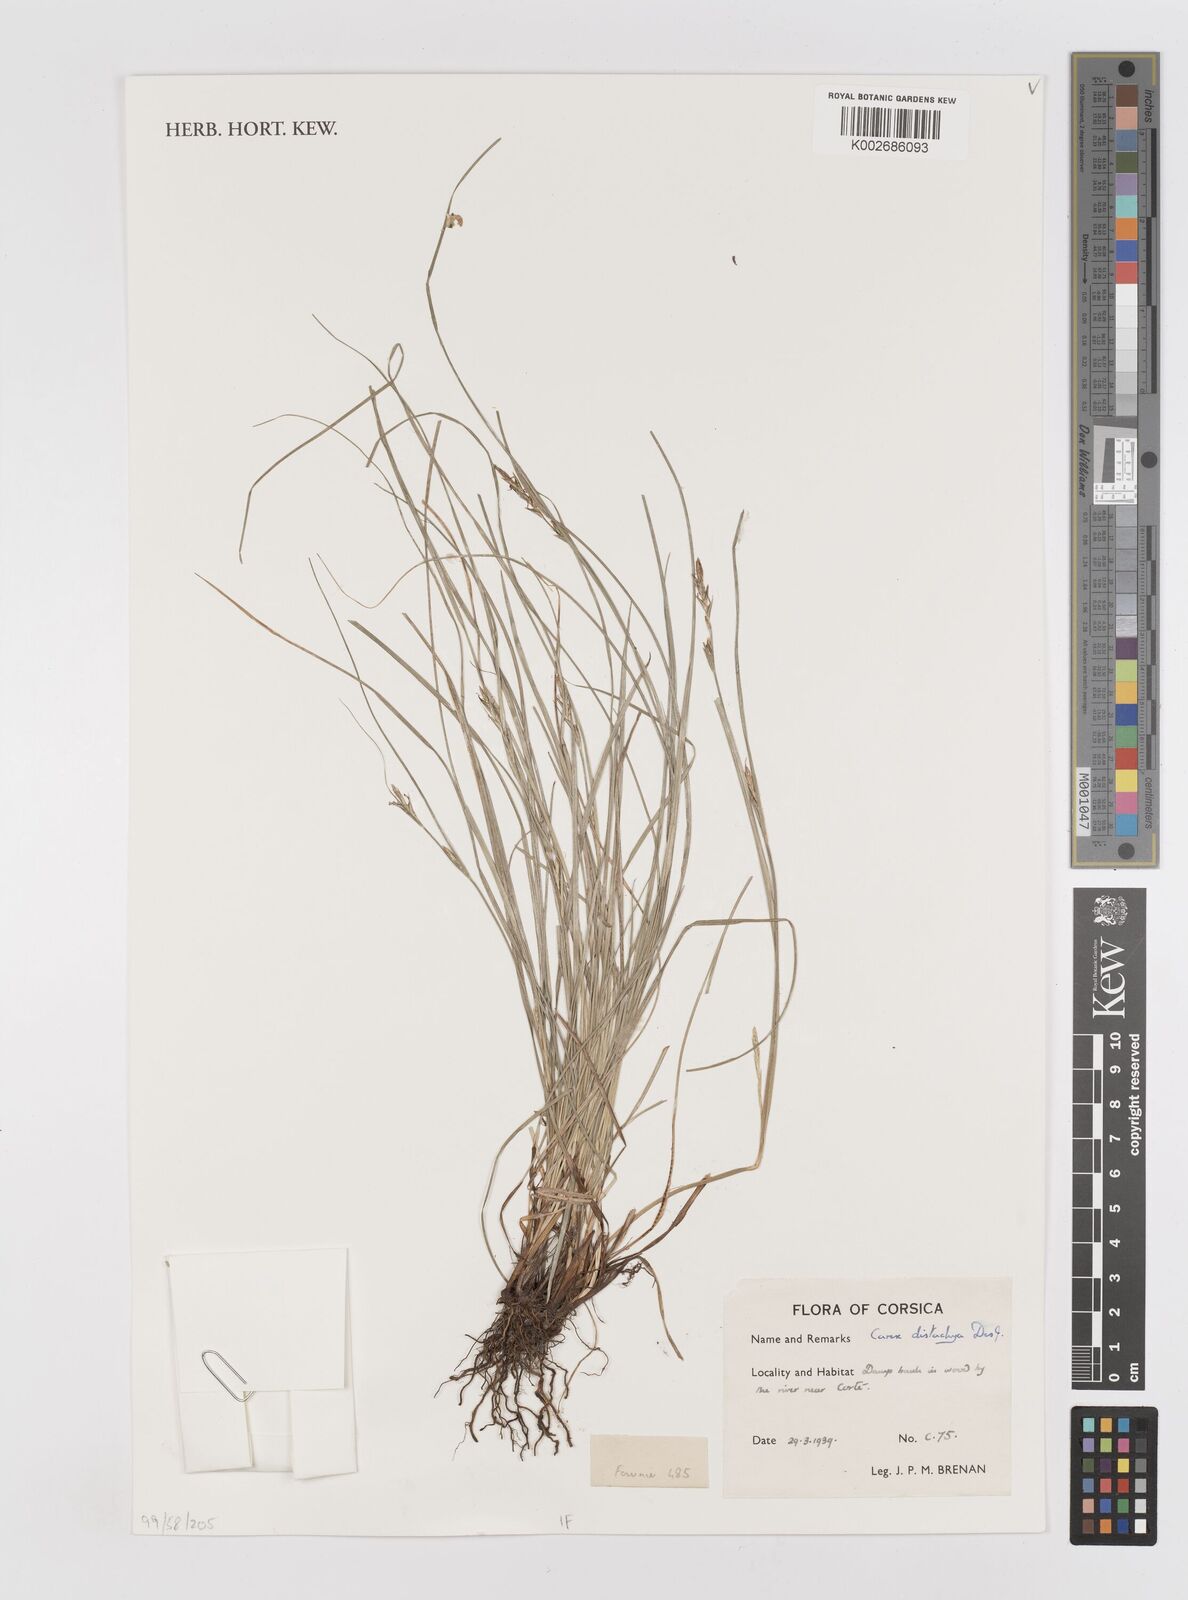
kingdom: Plantae
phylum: Tracheophyta
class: Liliopsida
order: Poales
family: Cyperaceae
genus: Carex
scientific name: Carex distachya
